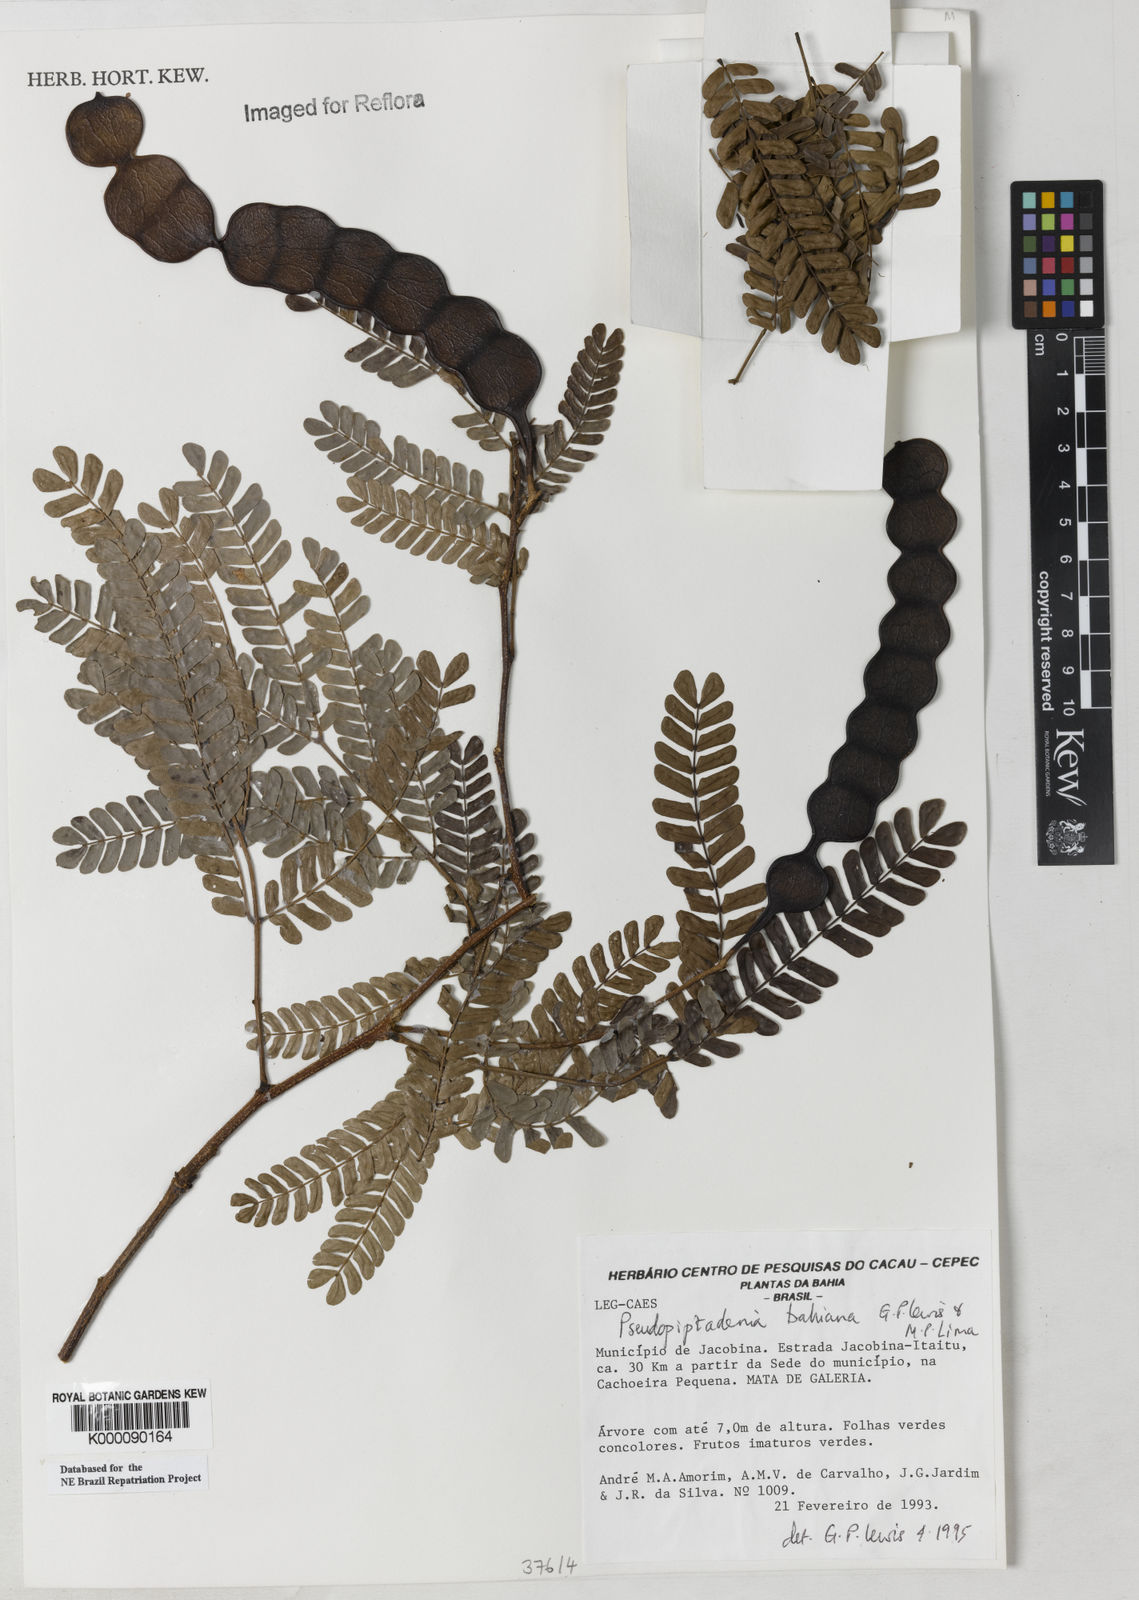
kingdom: Plantae
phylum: Tracheophyta
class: Magnoliopsida
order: Fabales
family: Fabaceae
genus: Pseudopiptadenia
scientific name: Pseudopiptadenia bahiana
